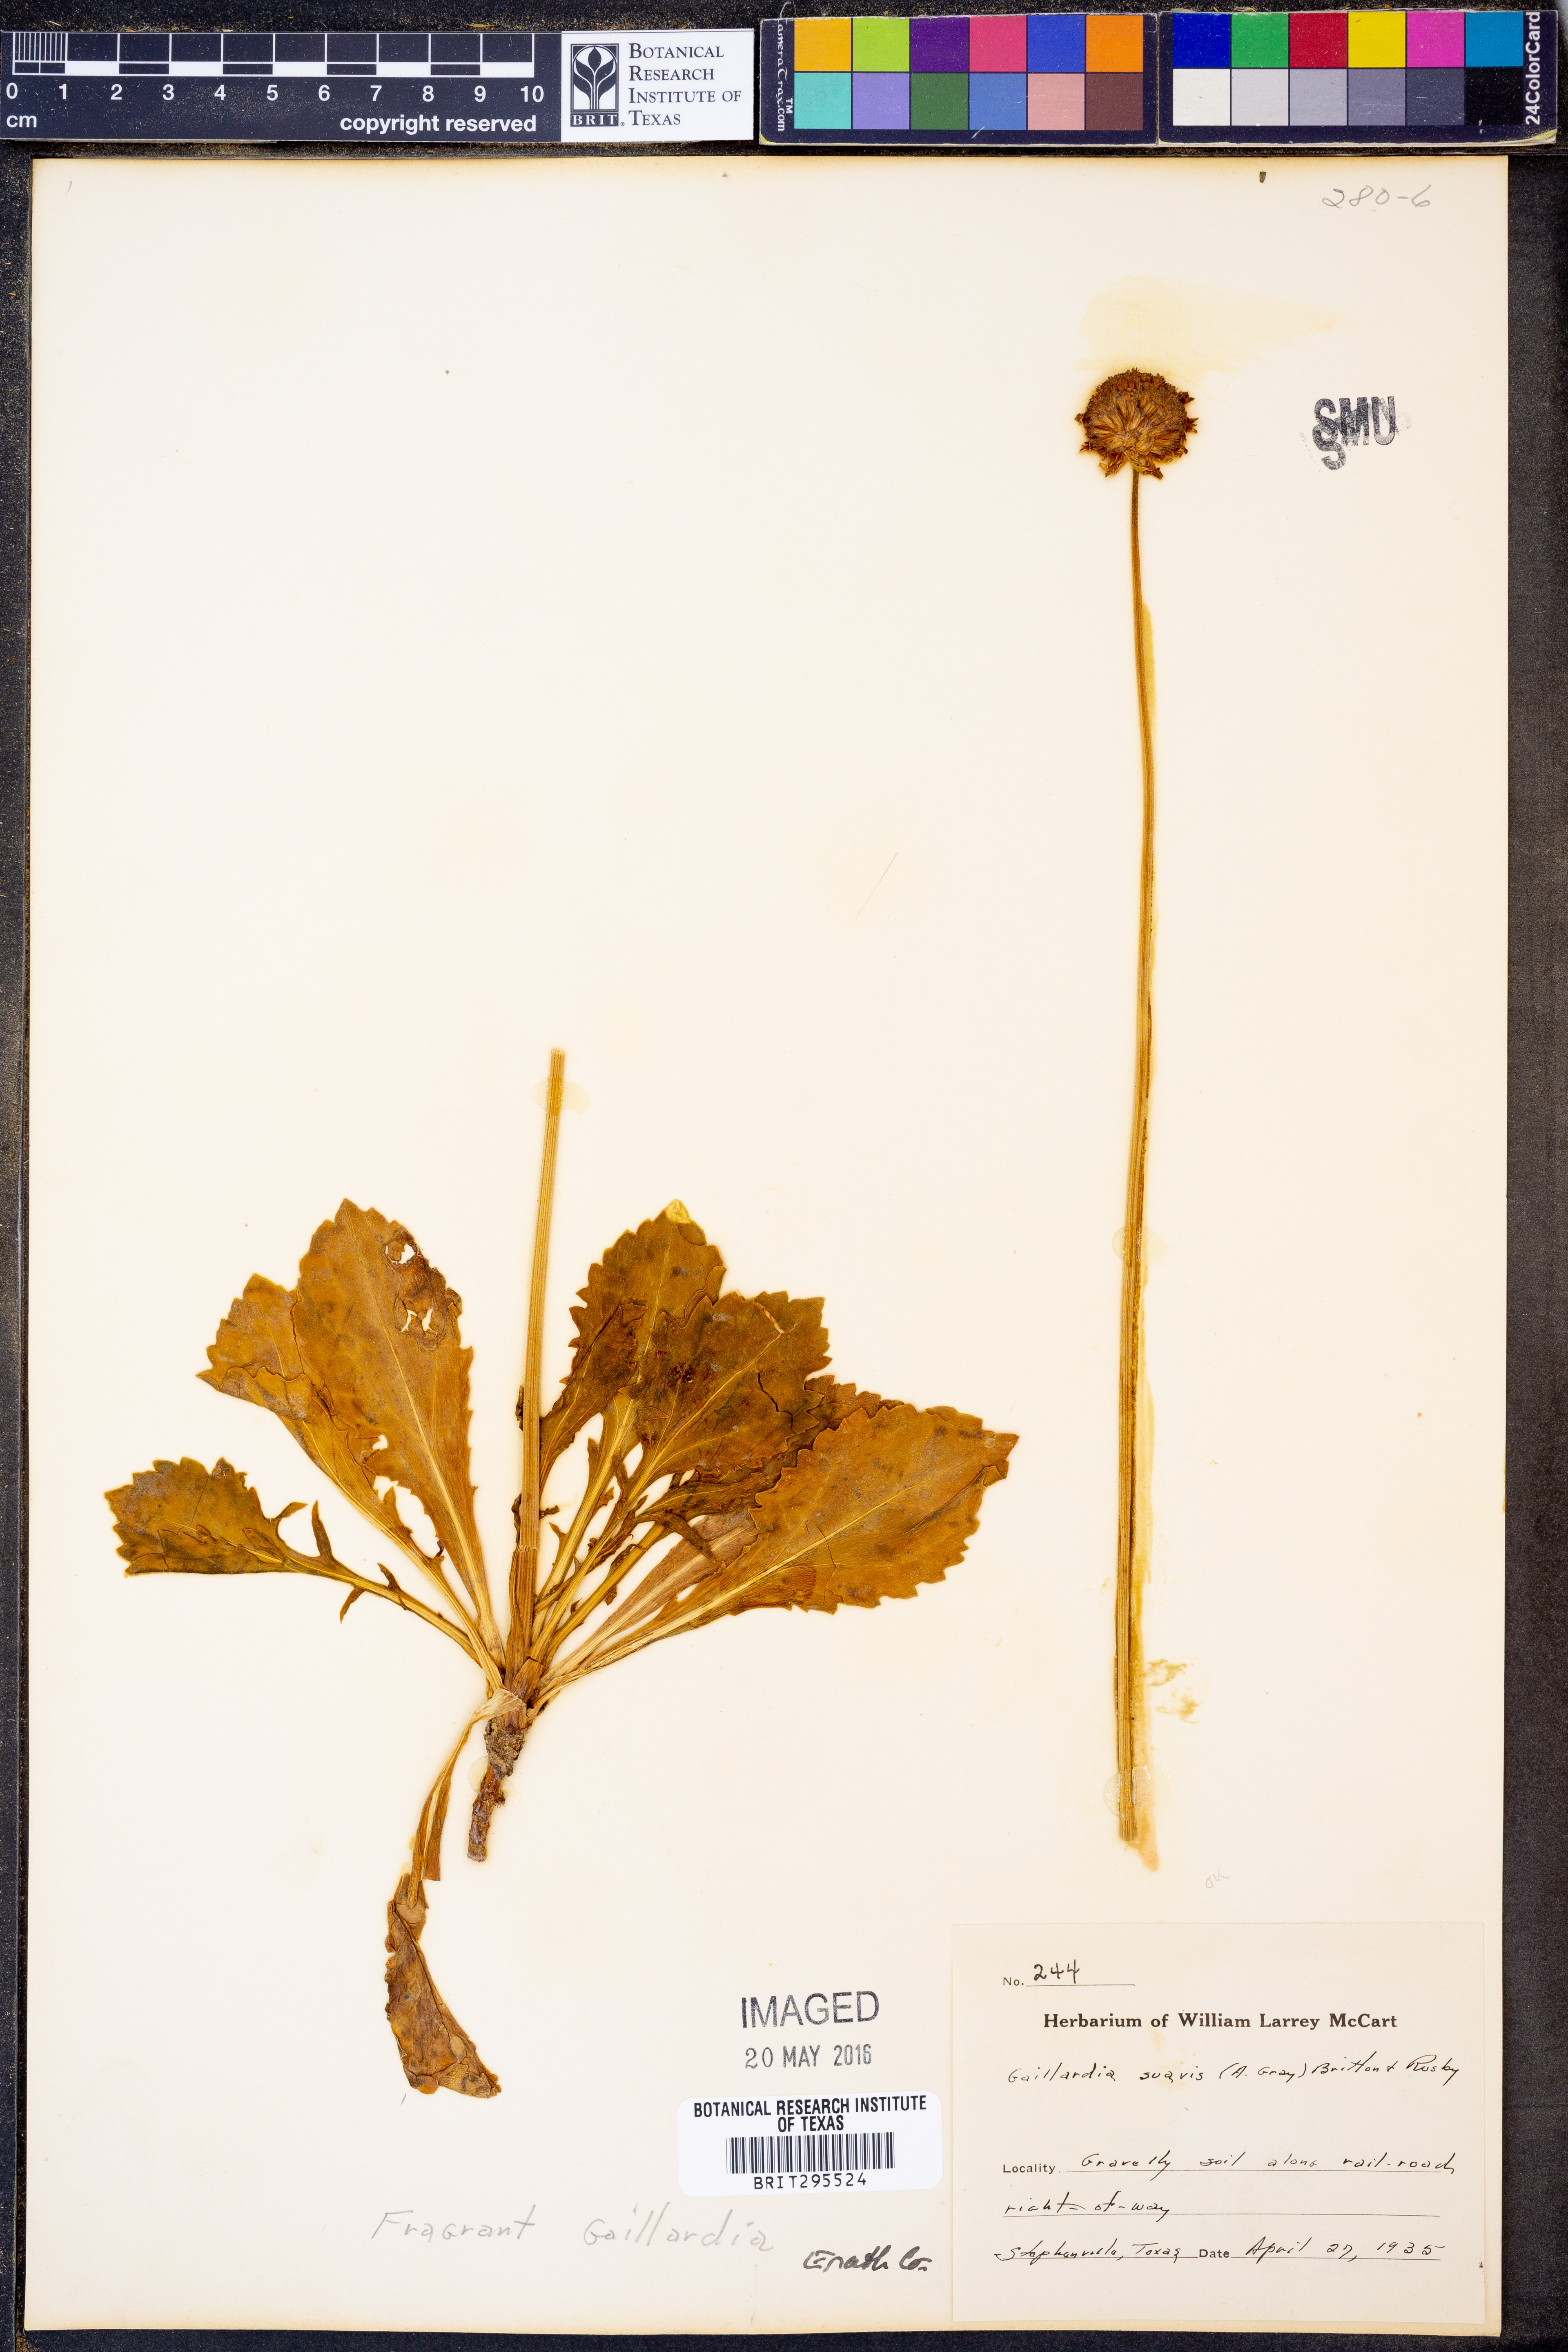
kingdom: Plantae
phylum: Tracheophyta
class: Magnoliopsida
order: Asterales
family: Asteraceae
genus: Gaillardia
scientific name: Gaillardia suavis
